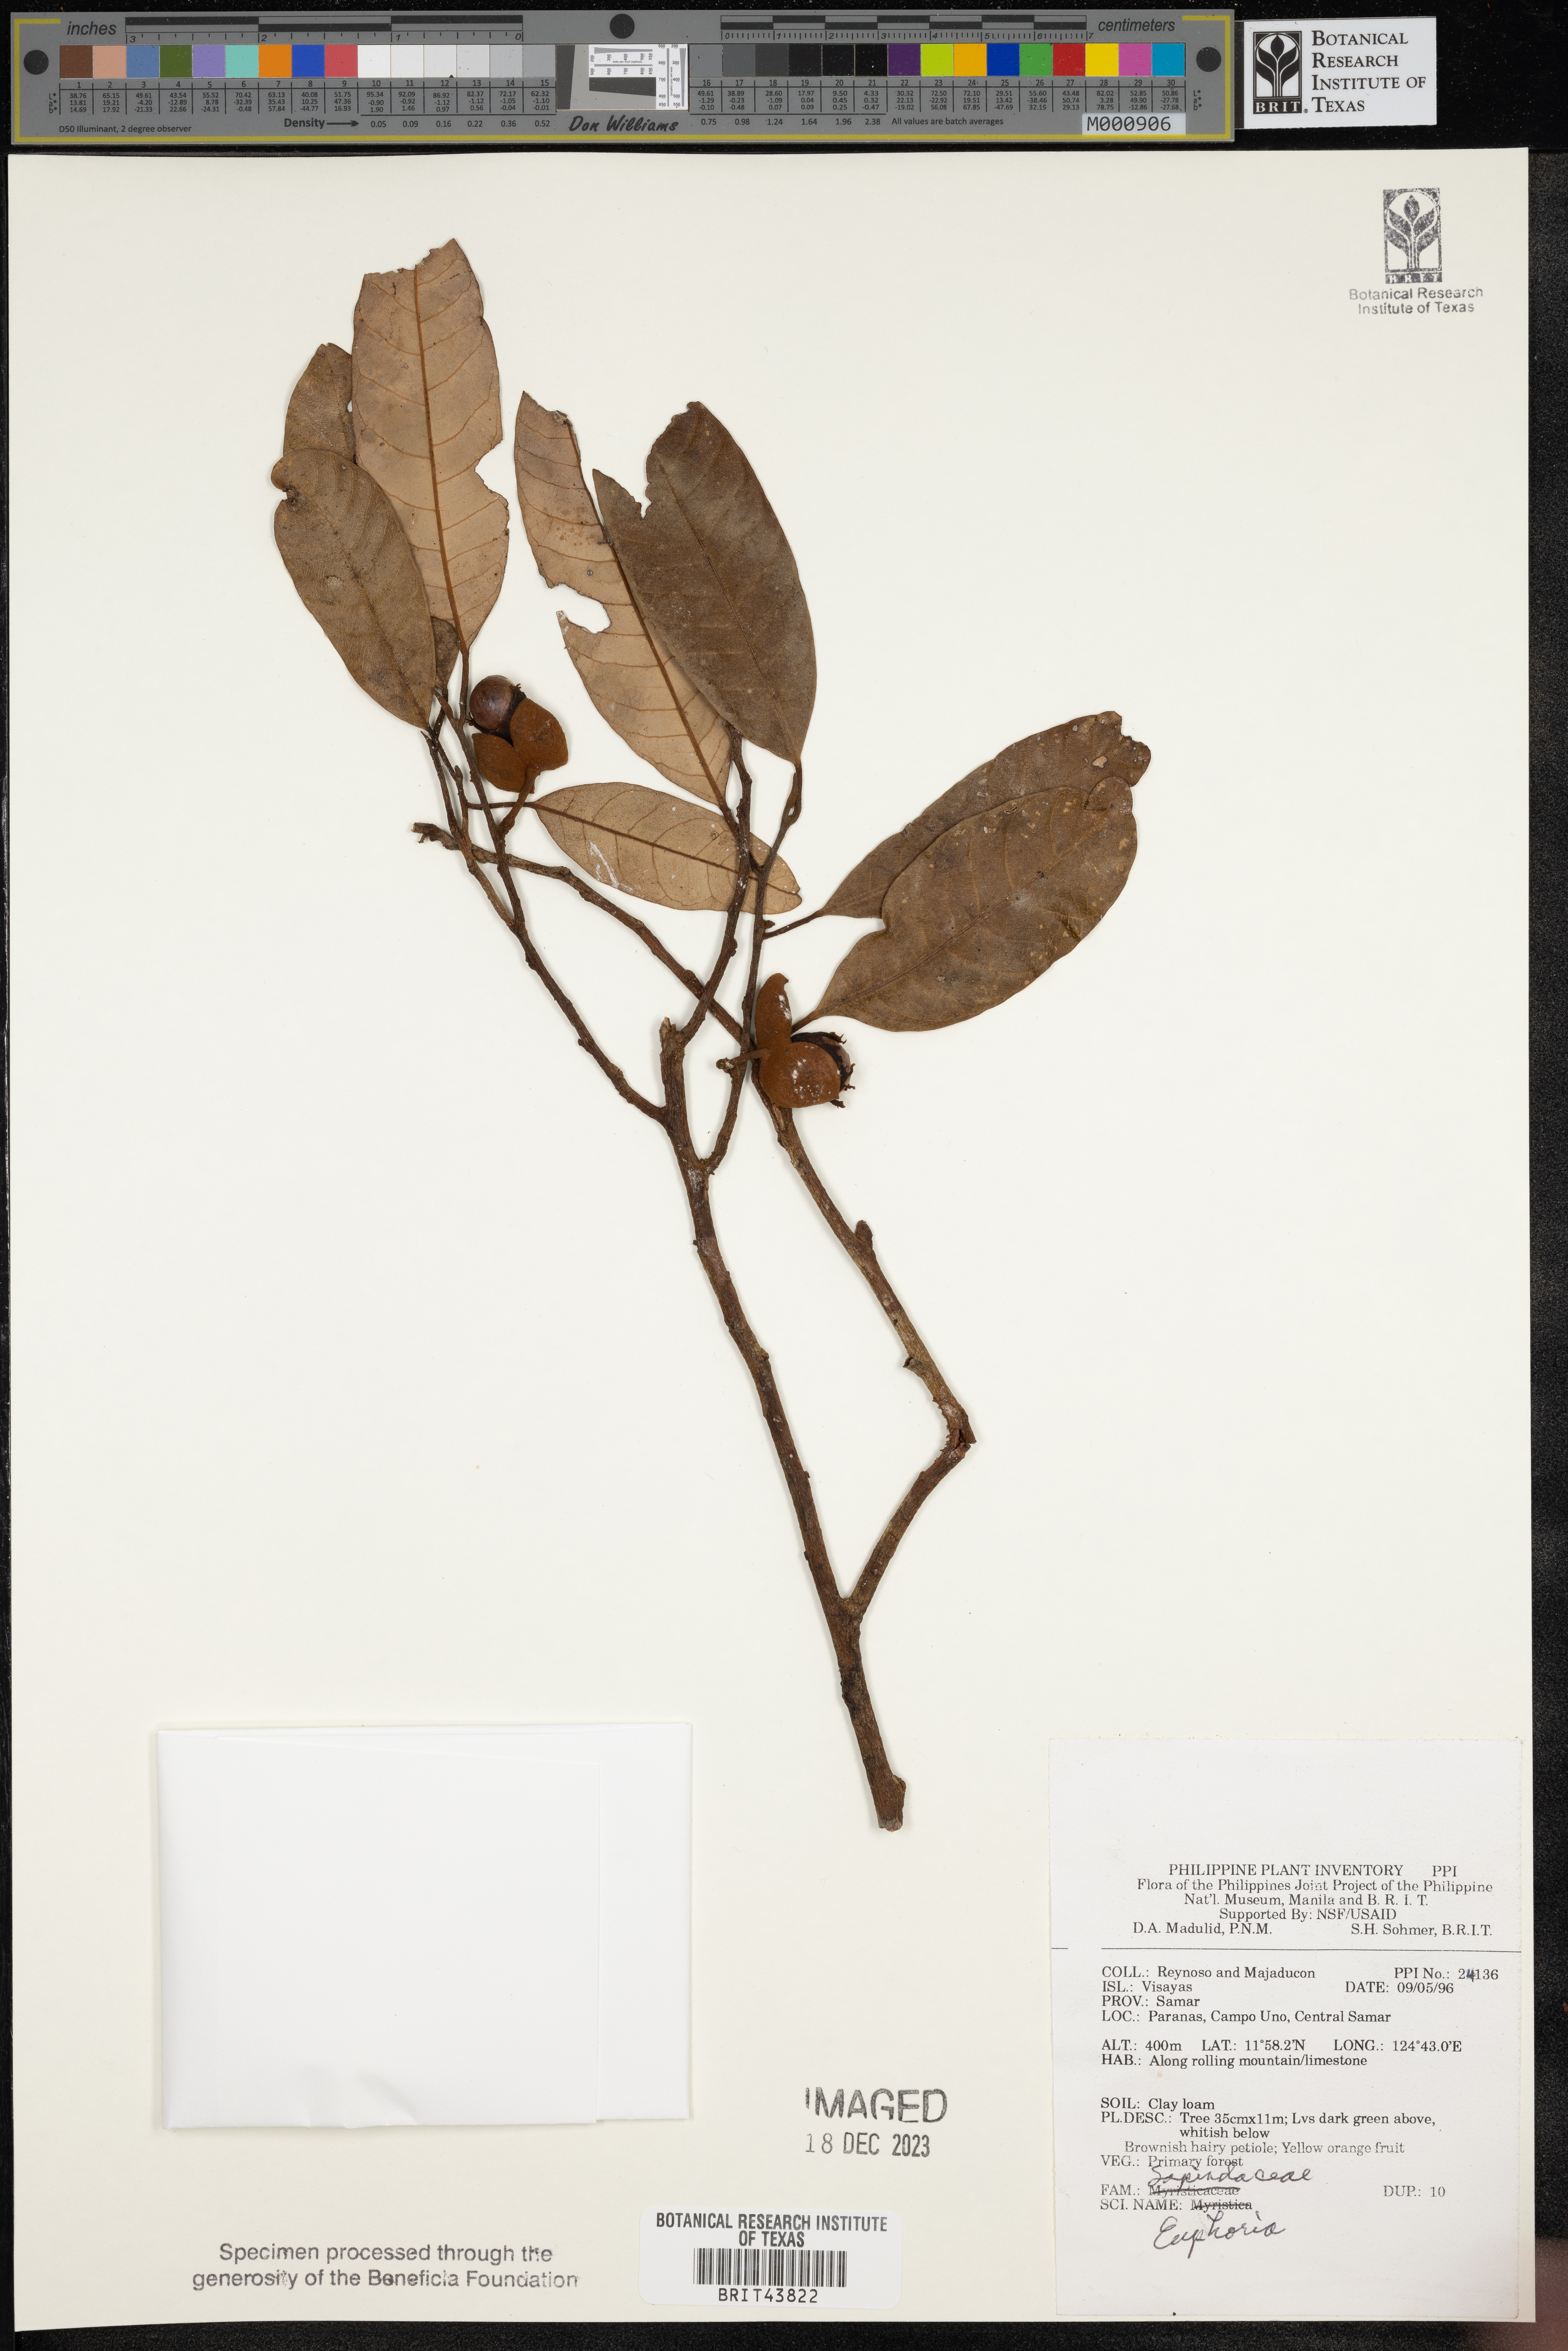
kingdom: Animalia
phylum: Arthropoda
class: Insecta
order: Coleoptera
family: Scarabaeidae
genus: Euphoria
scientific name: Euphoria
